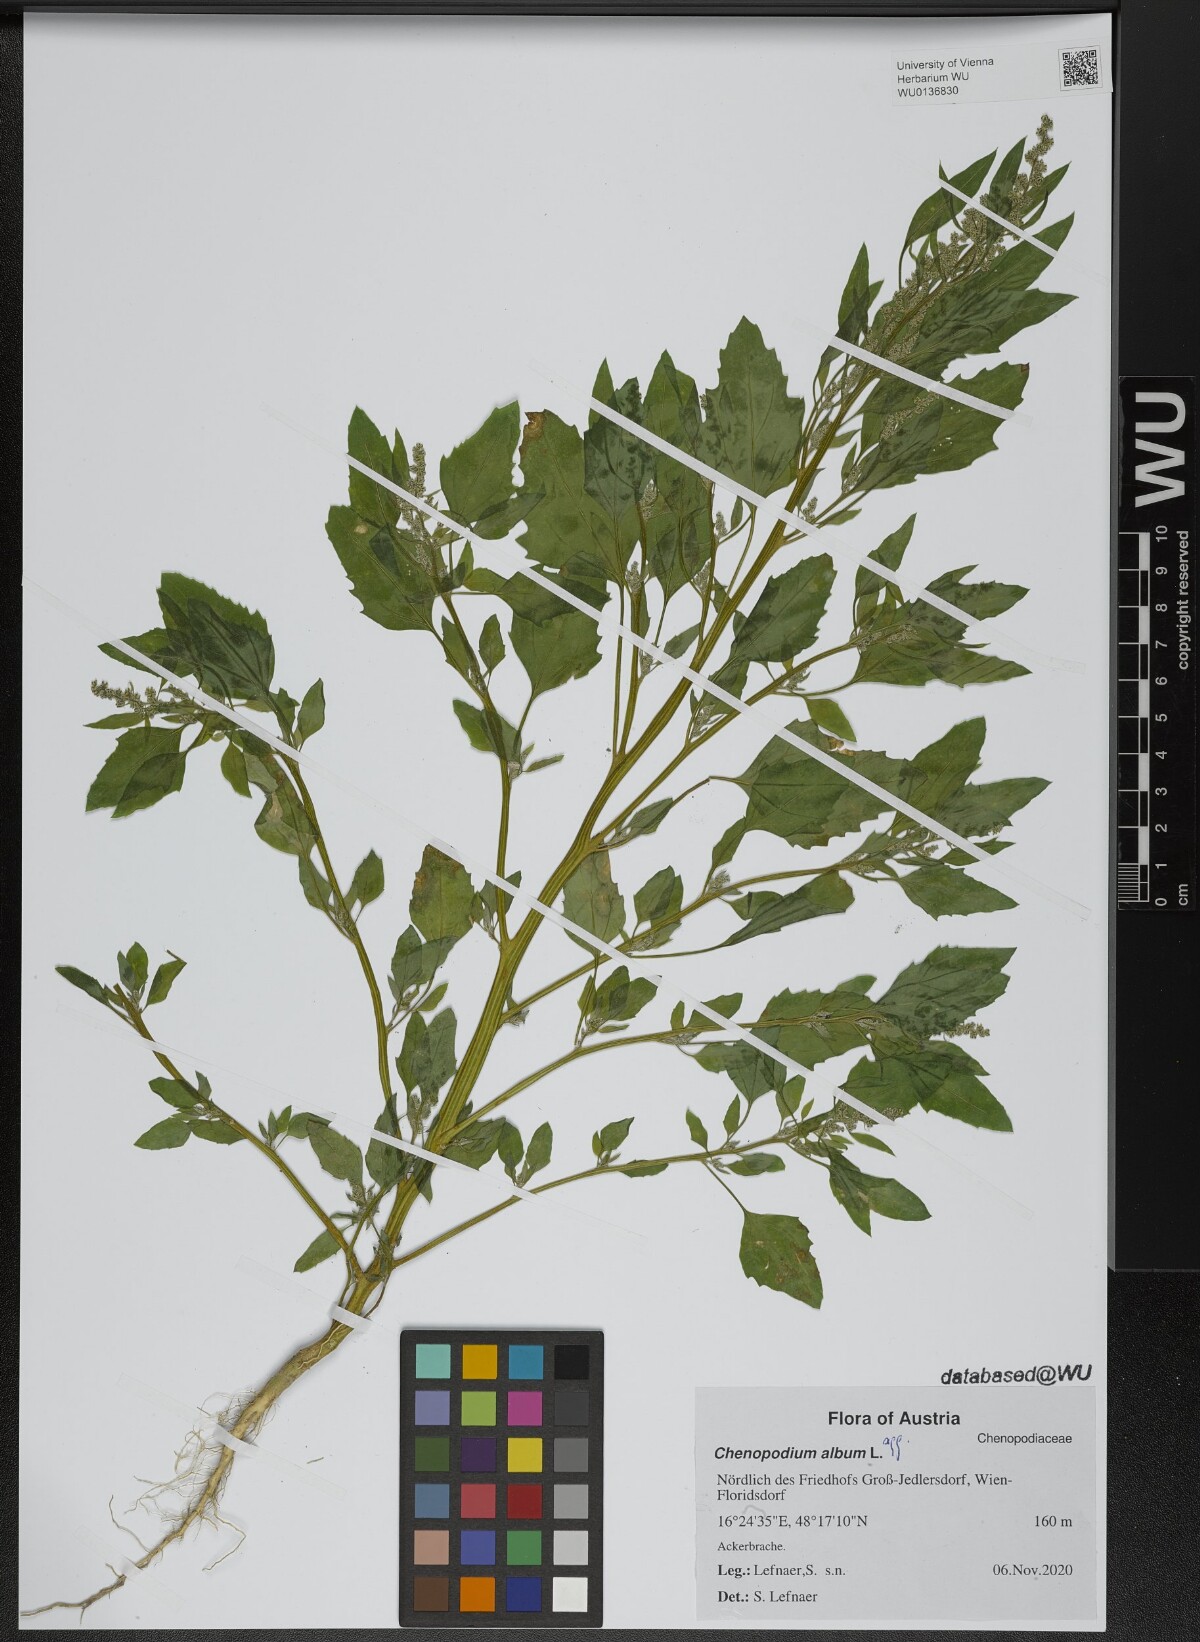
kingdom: Plantae
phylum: Tracheophyta
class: Magnoliopsida
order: Caryophyllales
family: Amaranthaceae
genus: Chenopodium
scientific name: Chenopodium album
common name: Fat-hen
